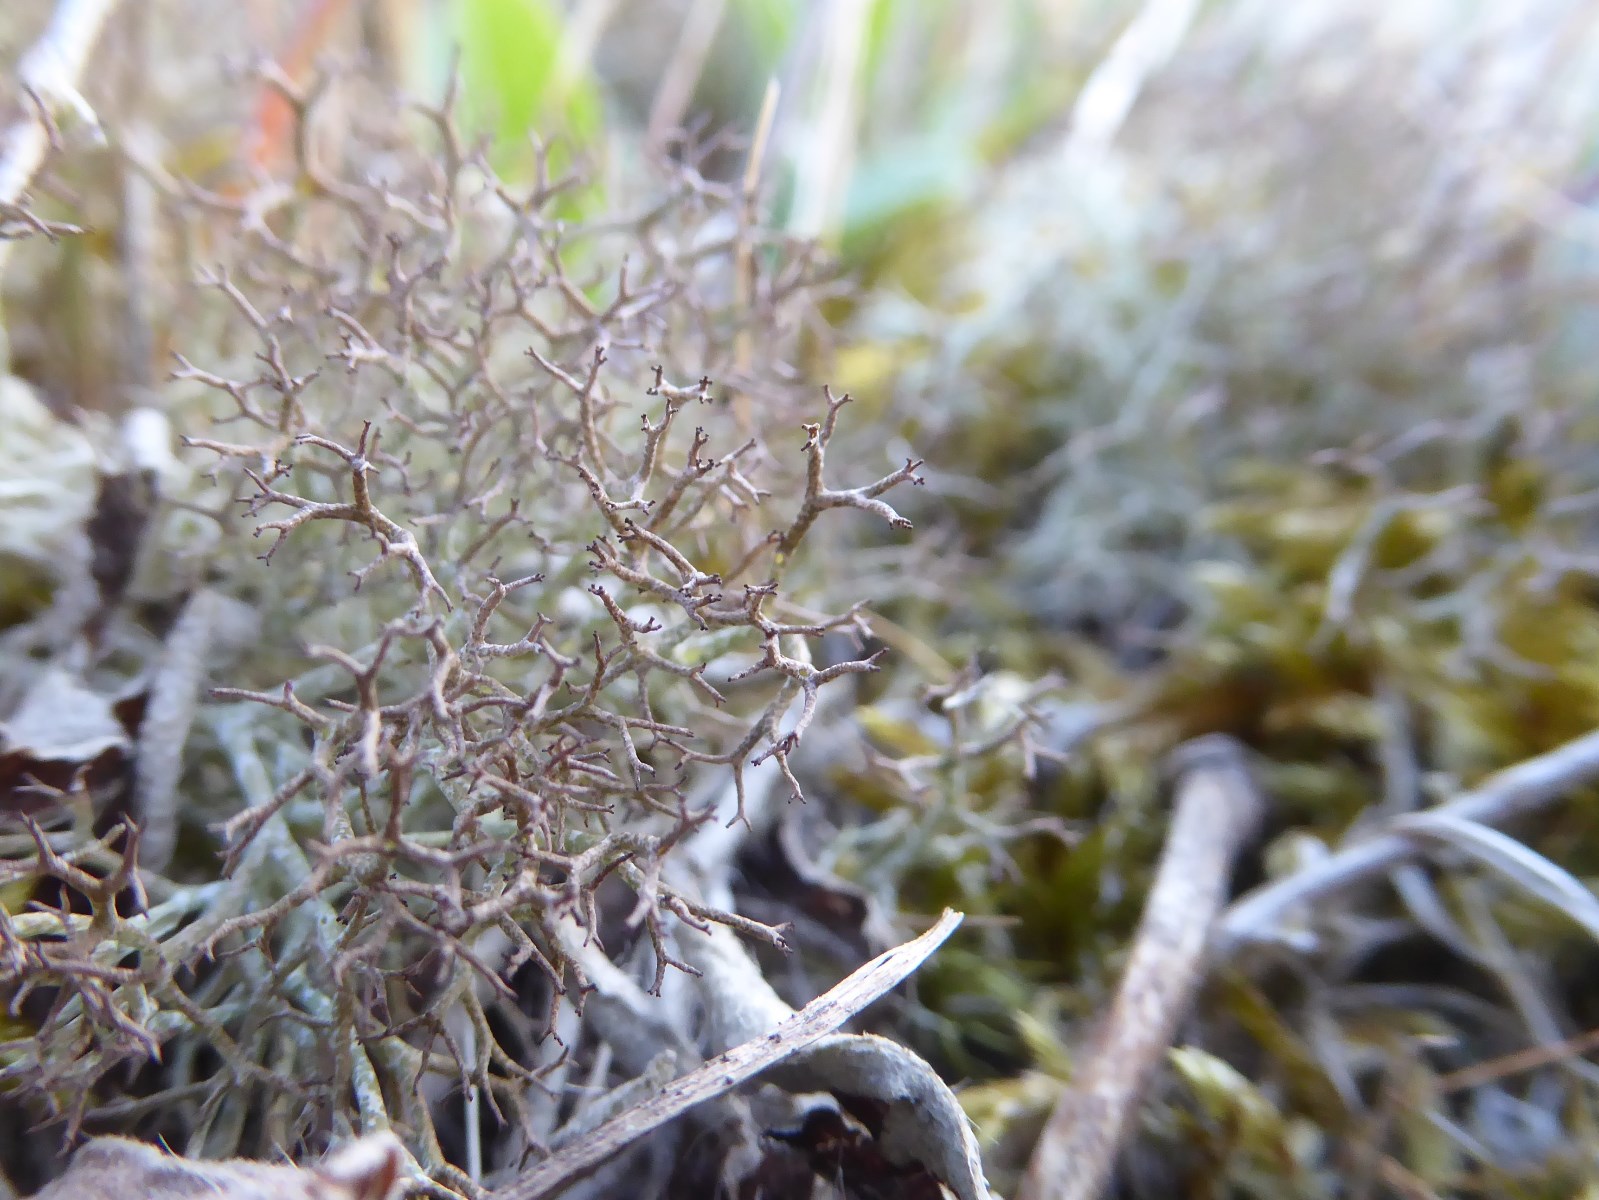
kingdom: Fungi
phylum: Ascomycota
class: Lecanoromycetes
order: Lecanorales
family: Cladoniaceae
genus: Cladonia
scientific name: Cladonia rangiformis
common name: spættet bægerlav
